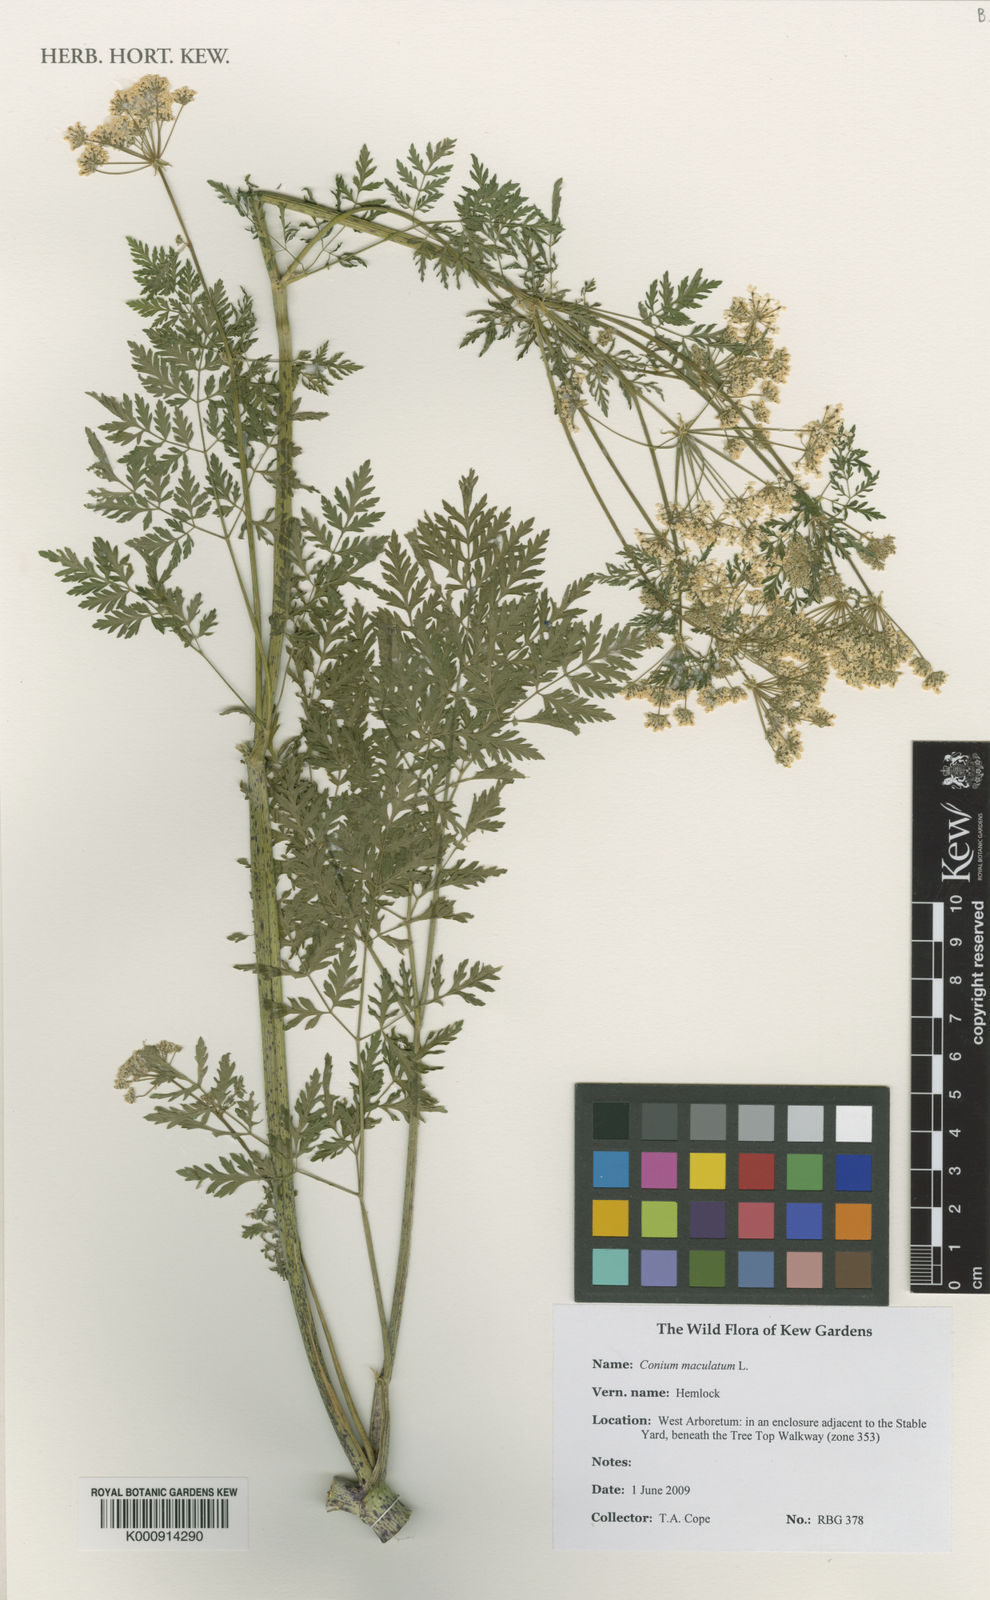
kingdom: Plantae
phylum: Tracheophyta
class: Magnoliopsida
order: Apiales
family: Apiaceae
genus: Conium
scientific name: Conium maculatum
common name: Hemlock
